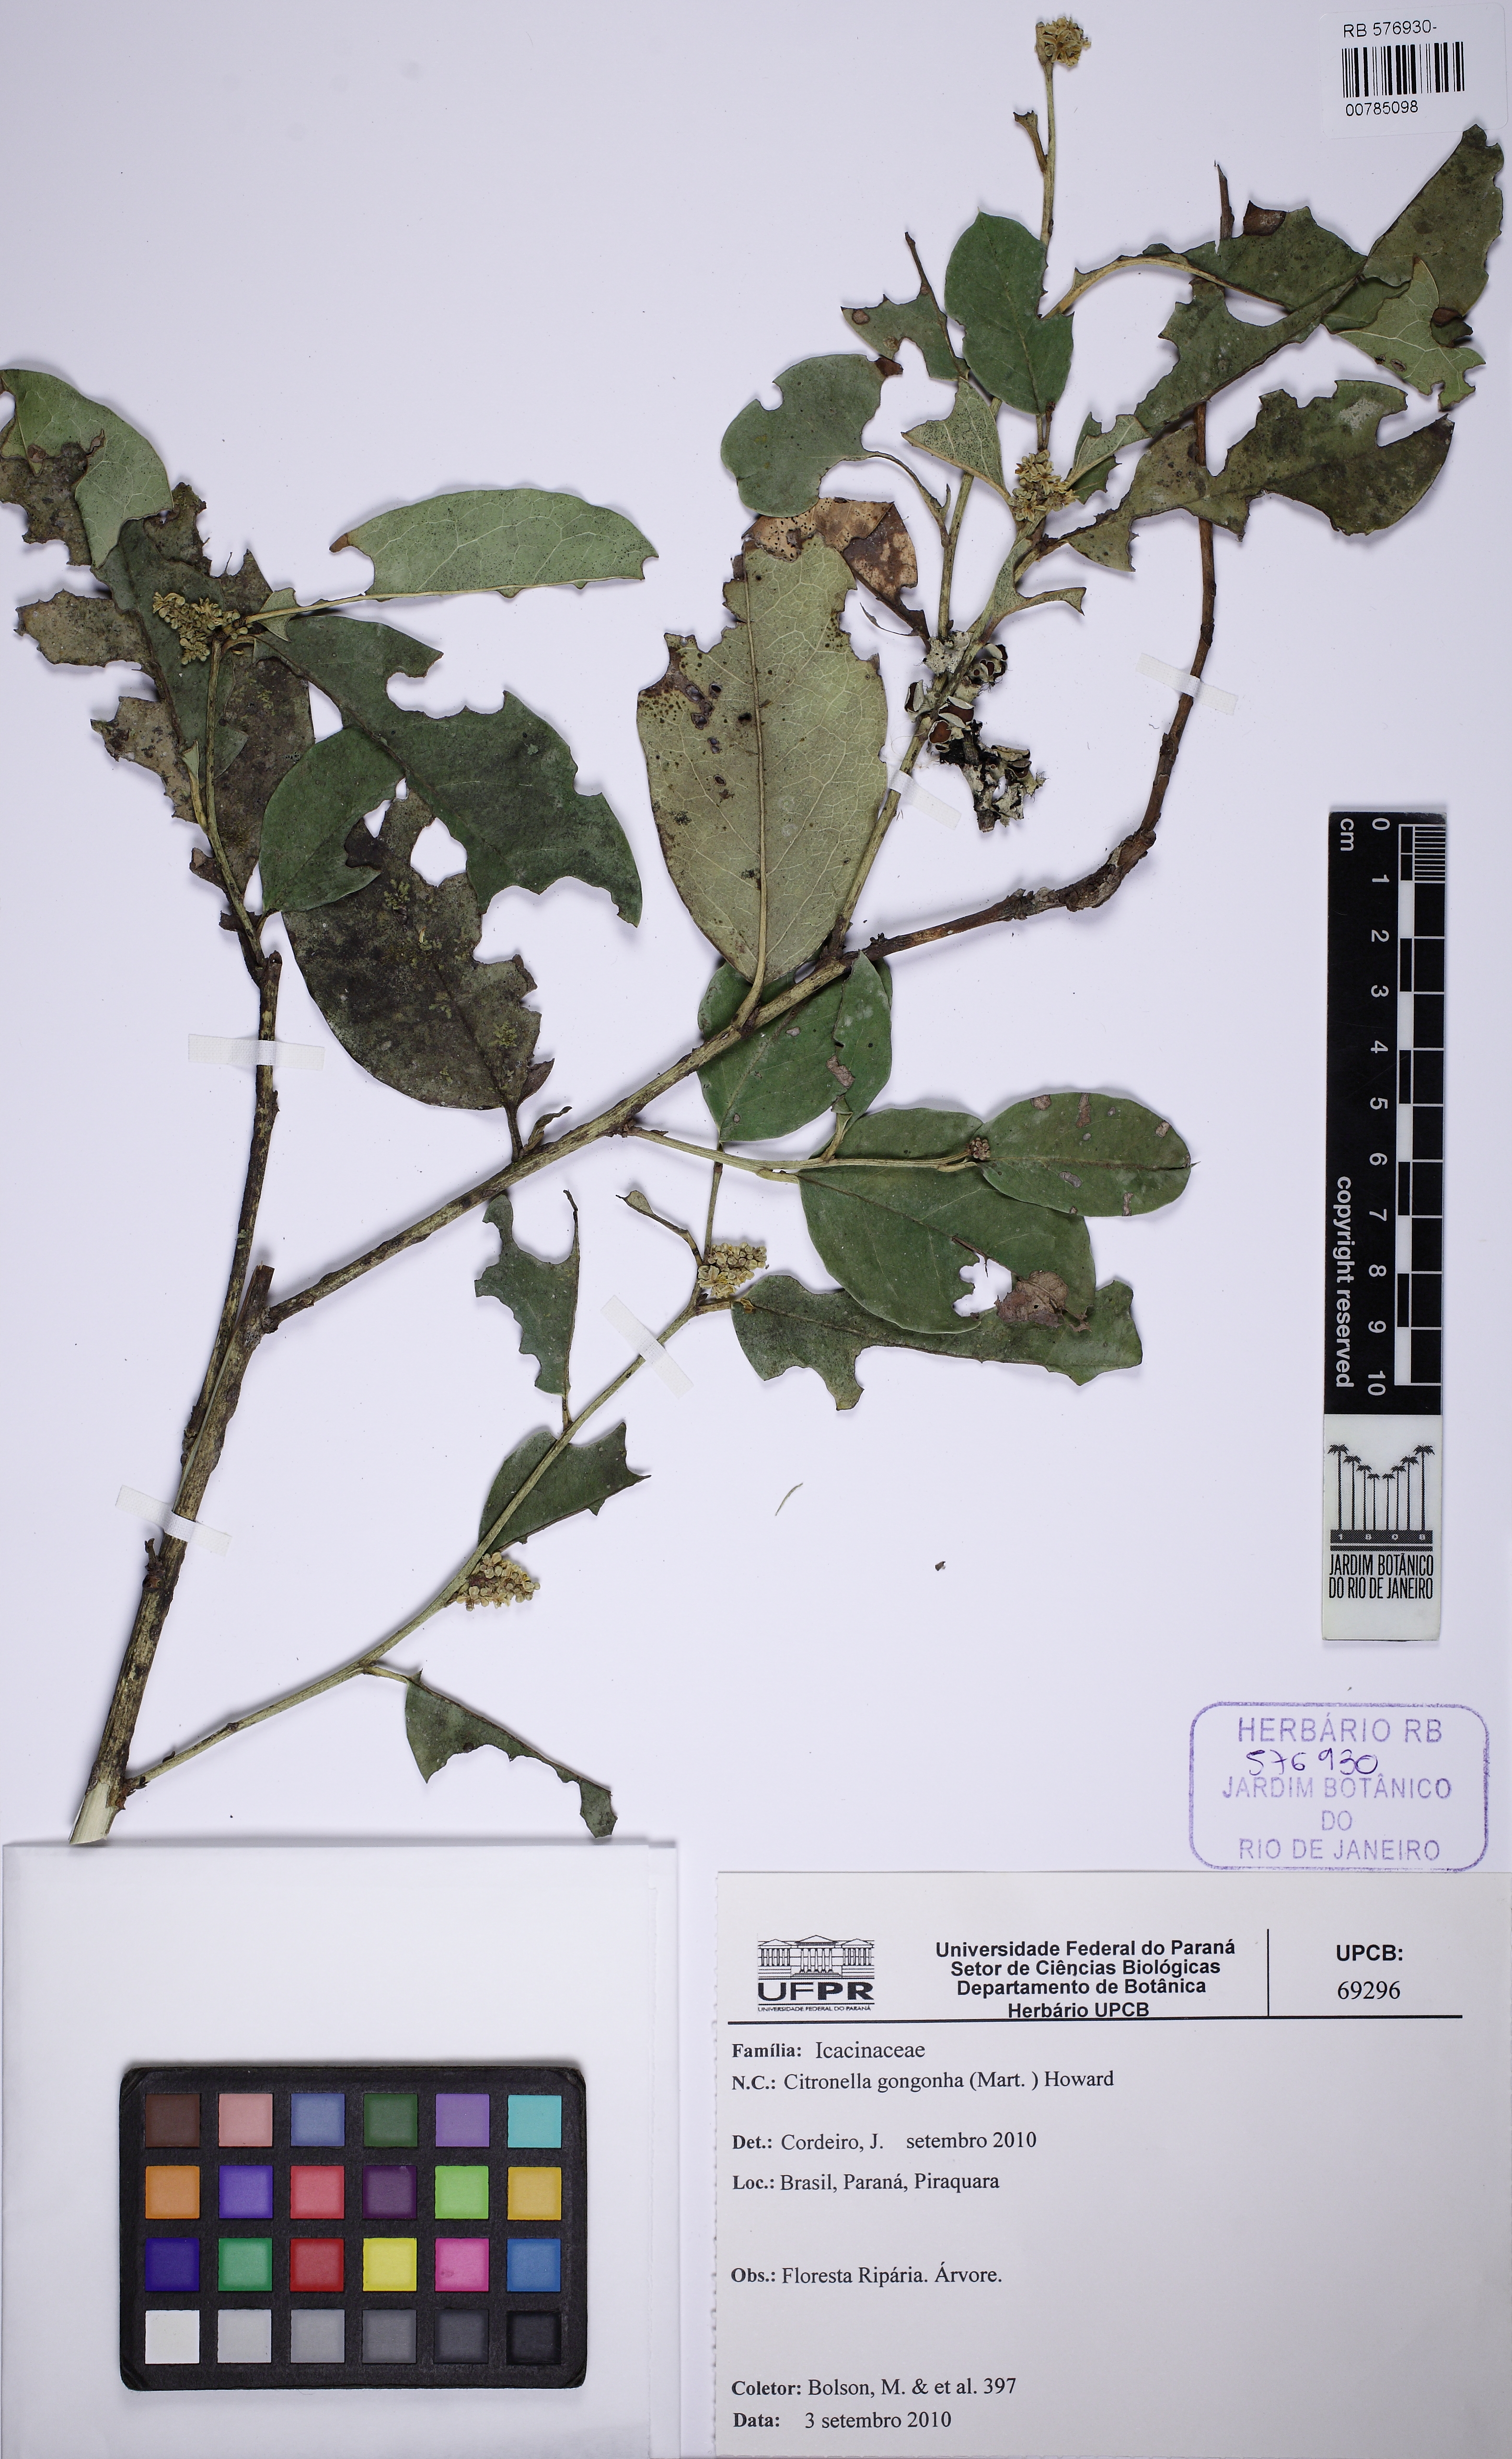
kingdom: Plantae
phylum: Tracheophyta
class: Magnoliopsida
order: Cardiopteridales
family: Cardiopteridaceae
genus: Citronella
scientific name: Citronella gongonha
